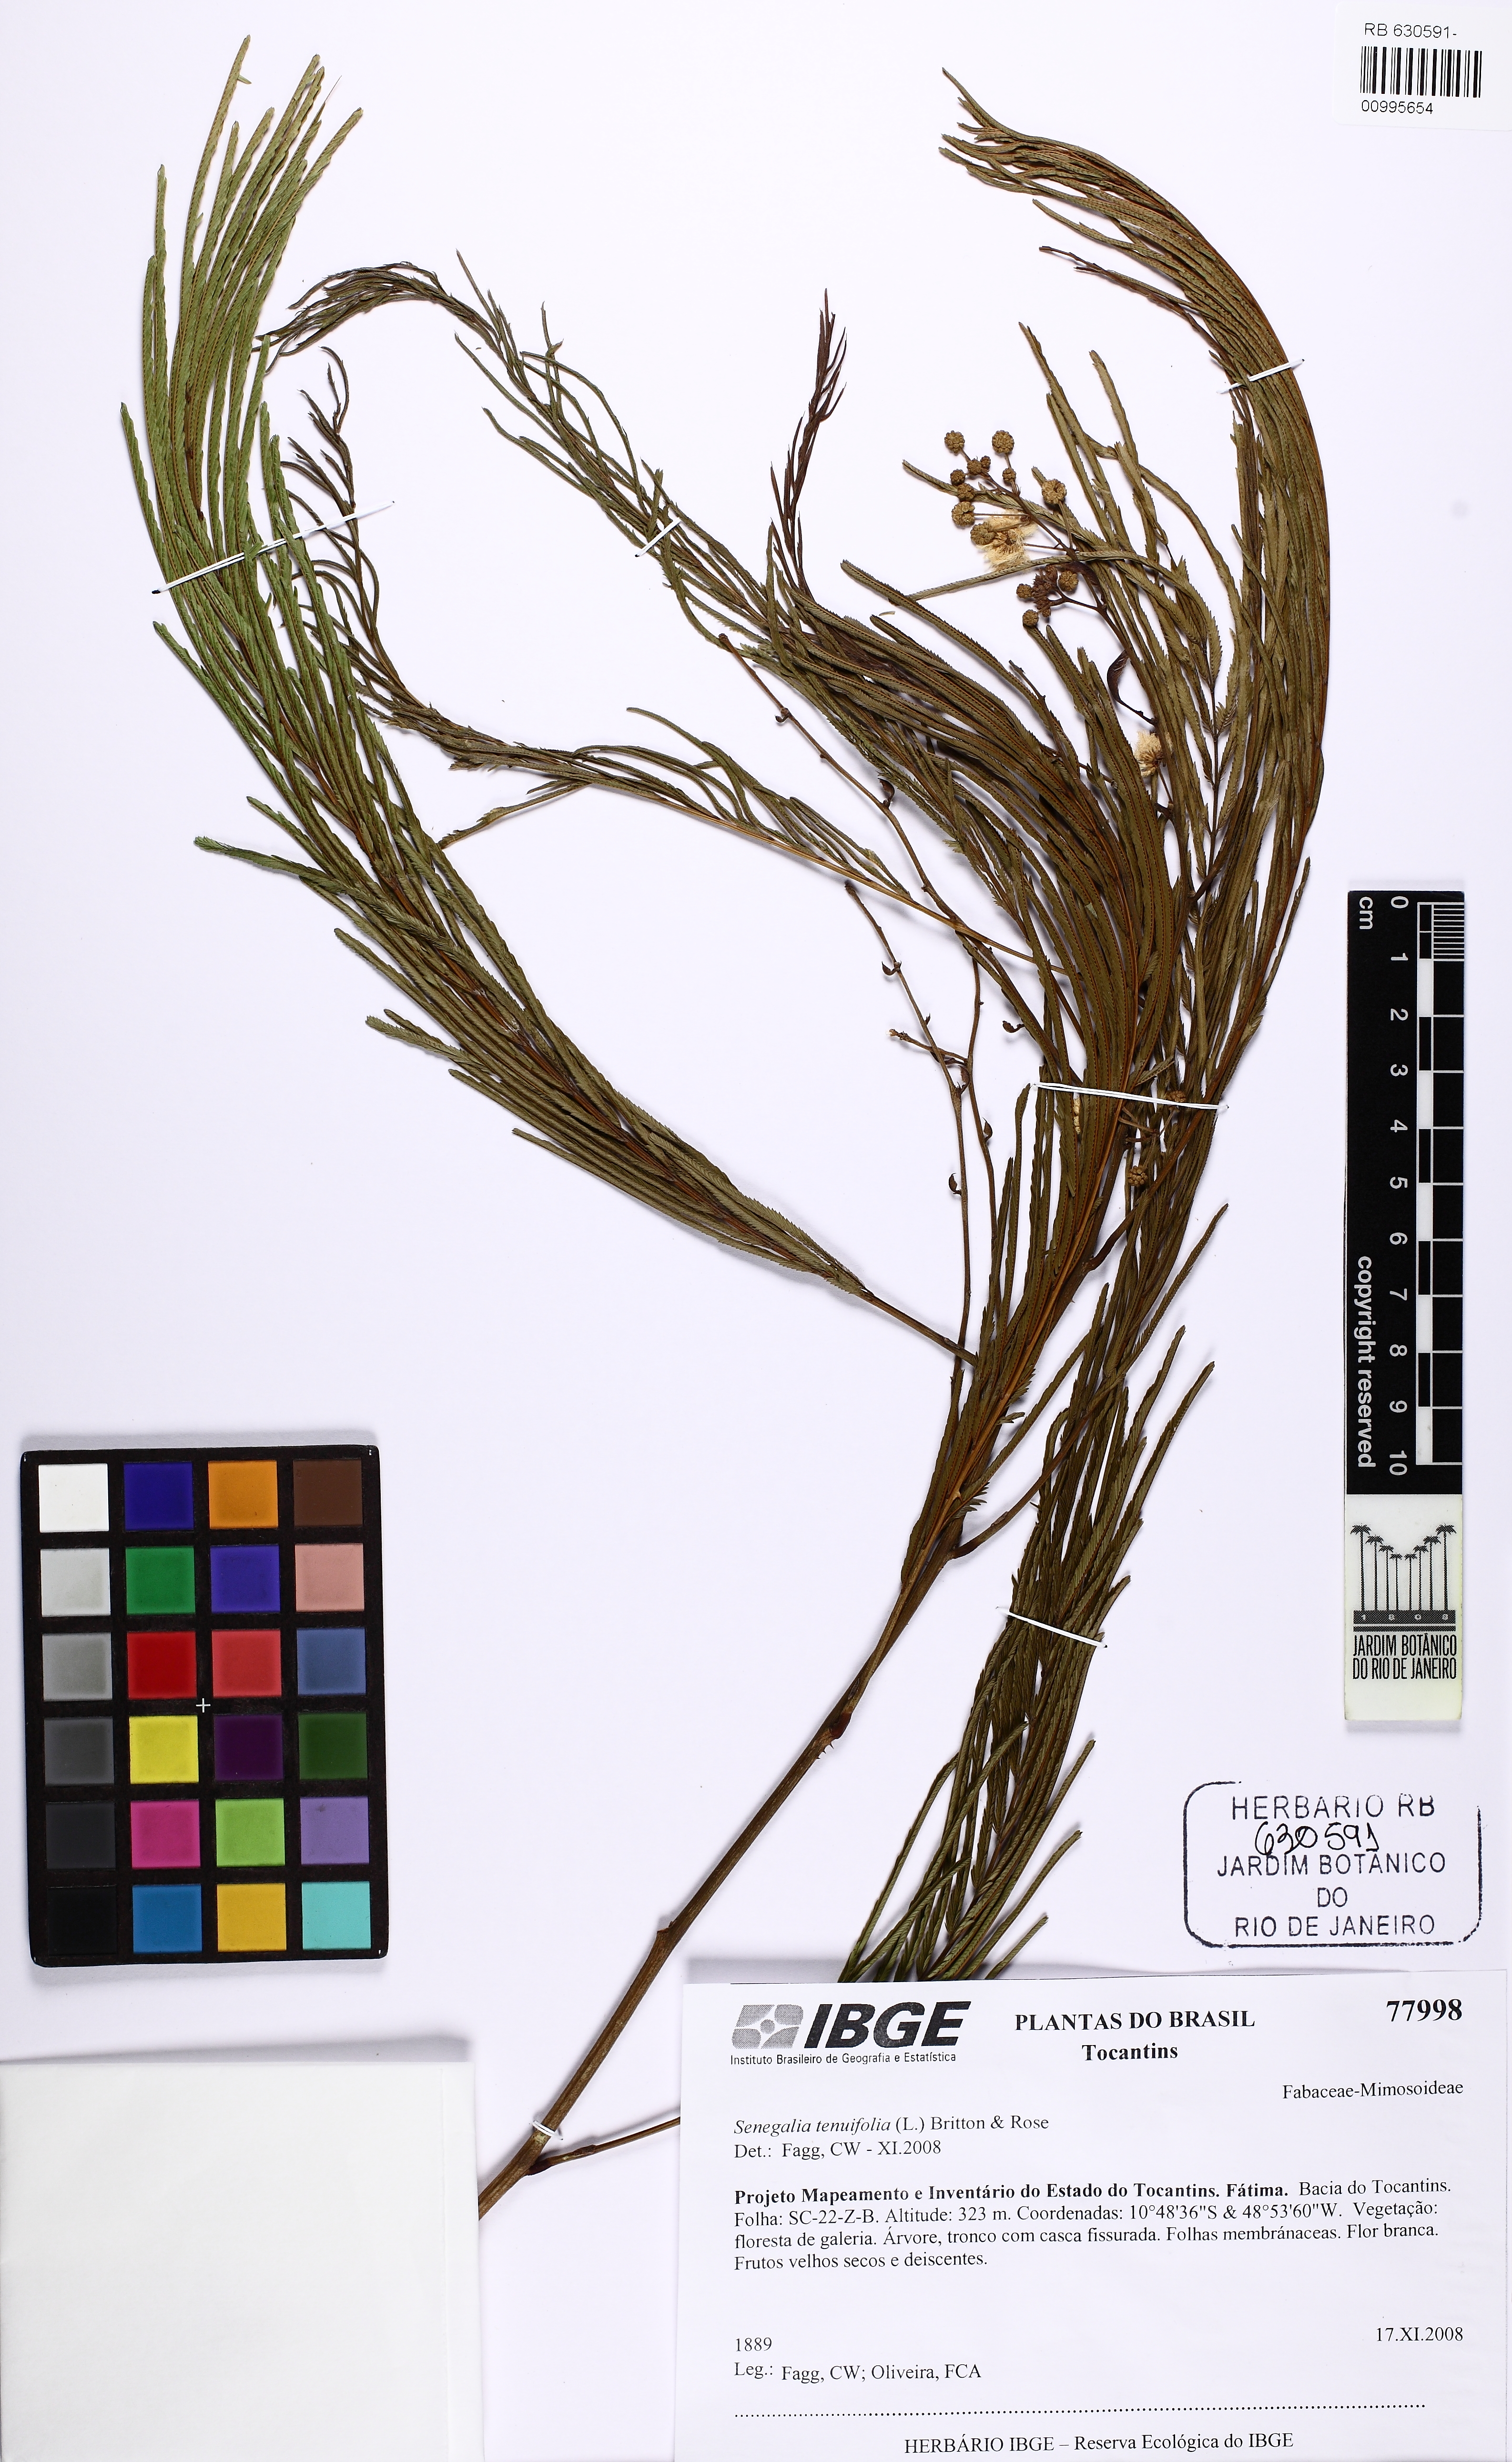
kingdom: Plantae
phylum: Tracheophyta
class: Magnoliopsida
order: Fabales
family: Fabaceae
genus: Senegalia
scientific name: Senegalia martii
